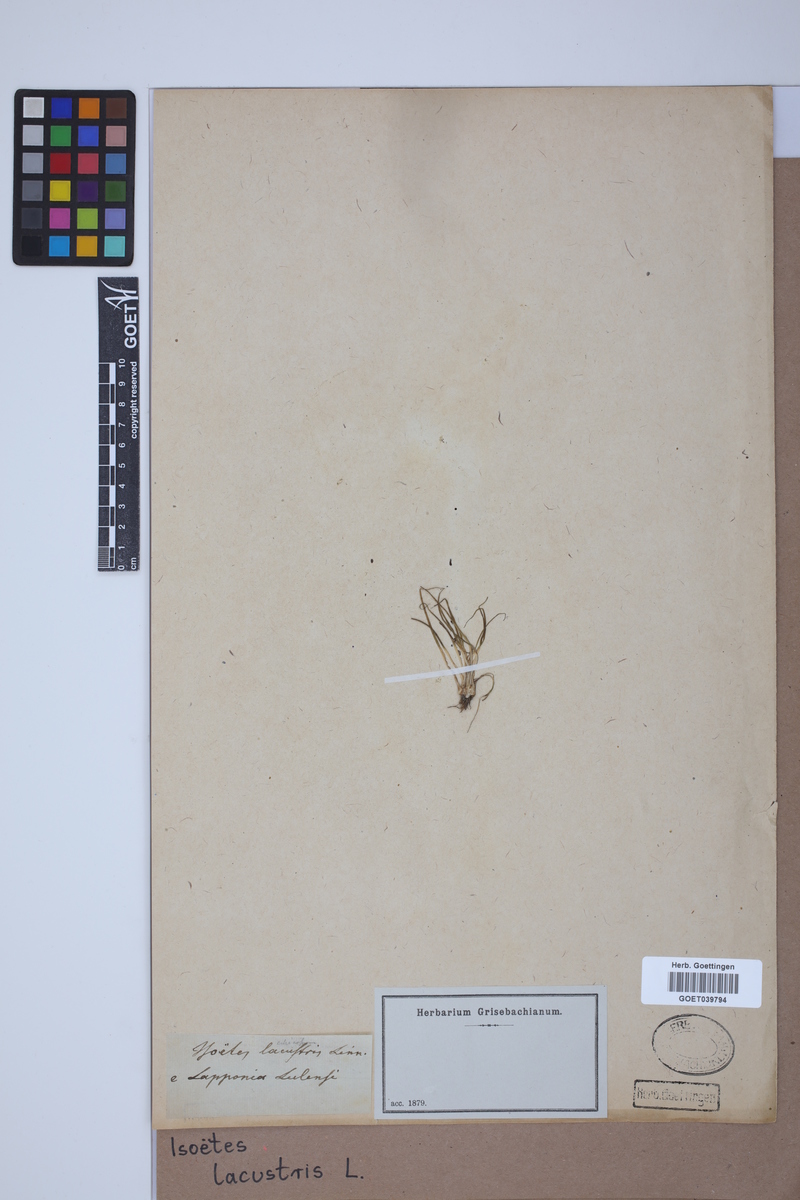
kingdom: Plantae
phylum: Tracheophyta
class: Lycopodiopsida
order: Isoetales
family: Isoetaceae
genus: Isoetes
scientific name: Isoetes lacustris
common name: Common quillwort
